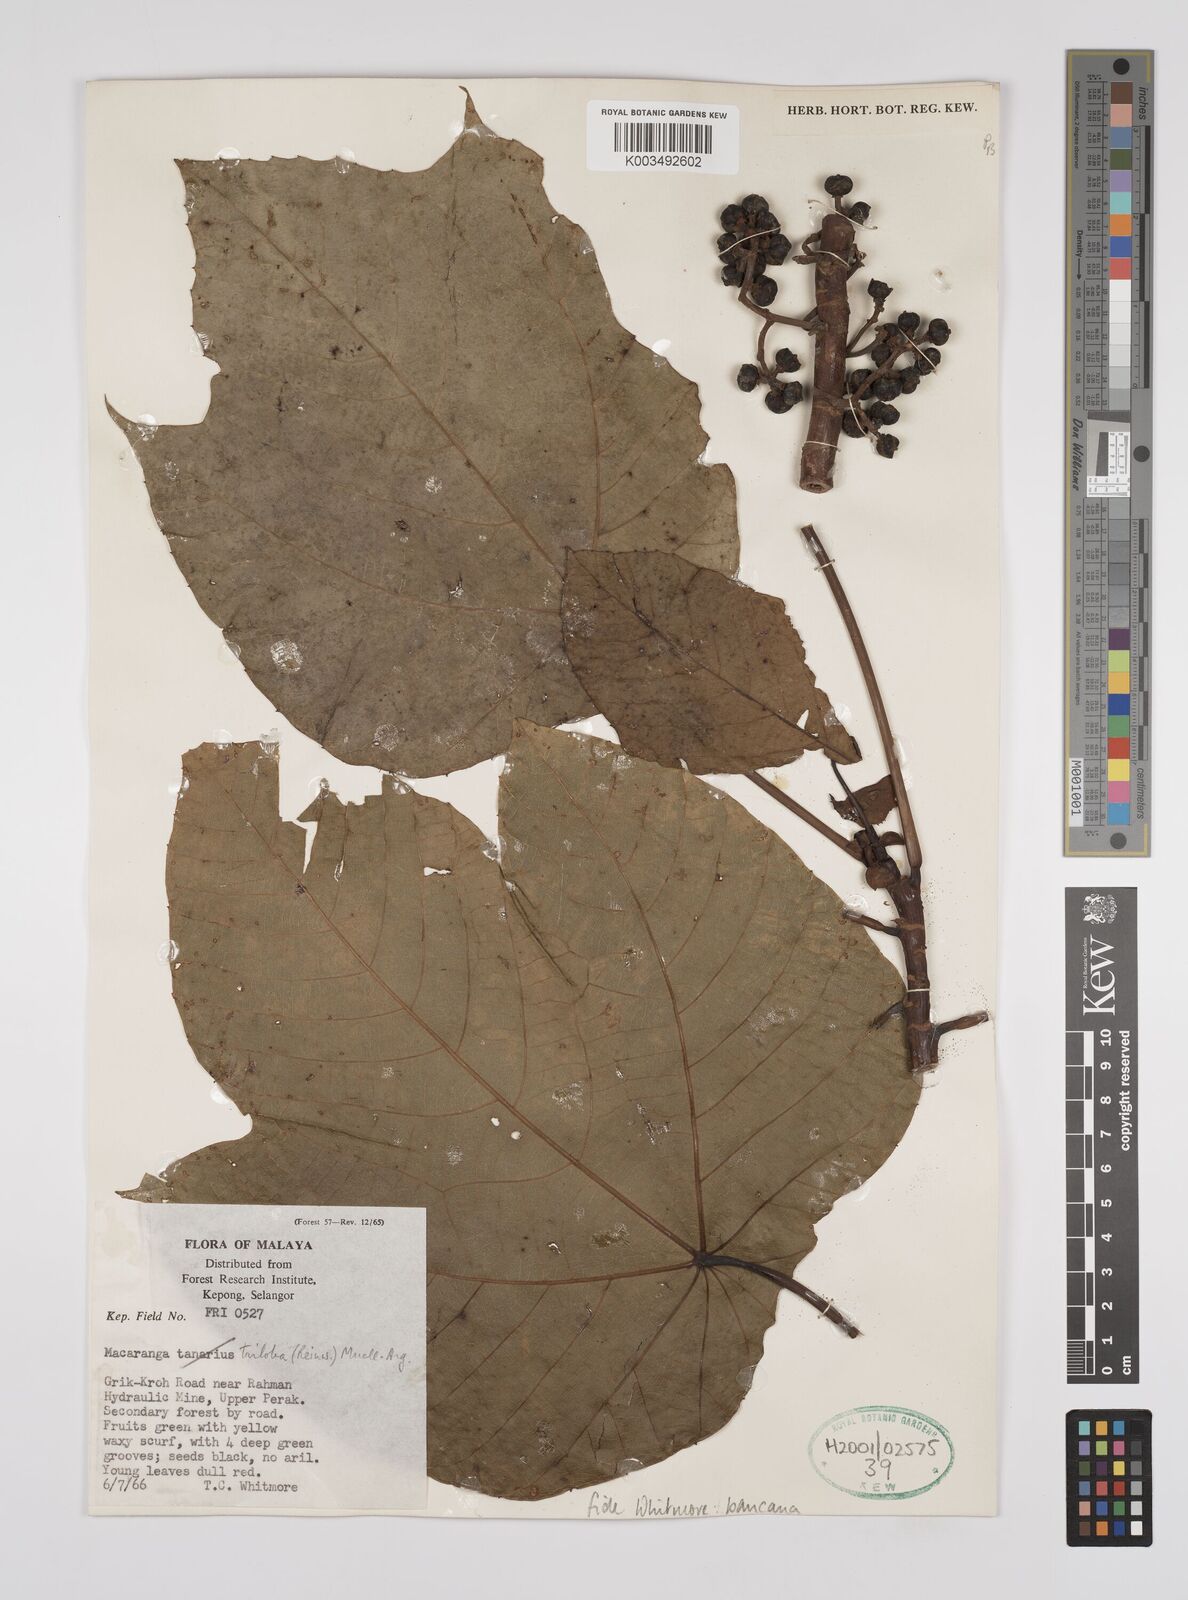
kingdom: Plantae
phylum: Tracheophyta
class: Magnoliopsida
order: Malpighiales
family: Euphorbiaceae
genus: Macaranga
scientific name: Macaranga bancana
